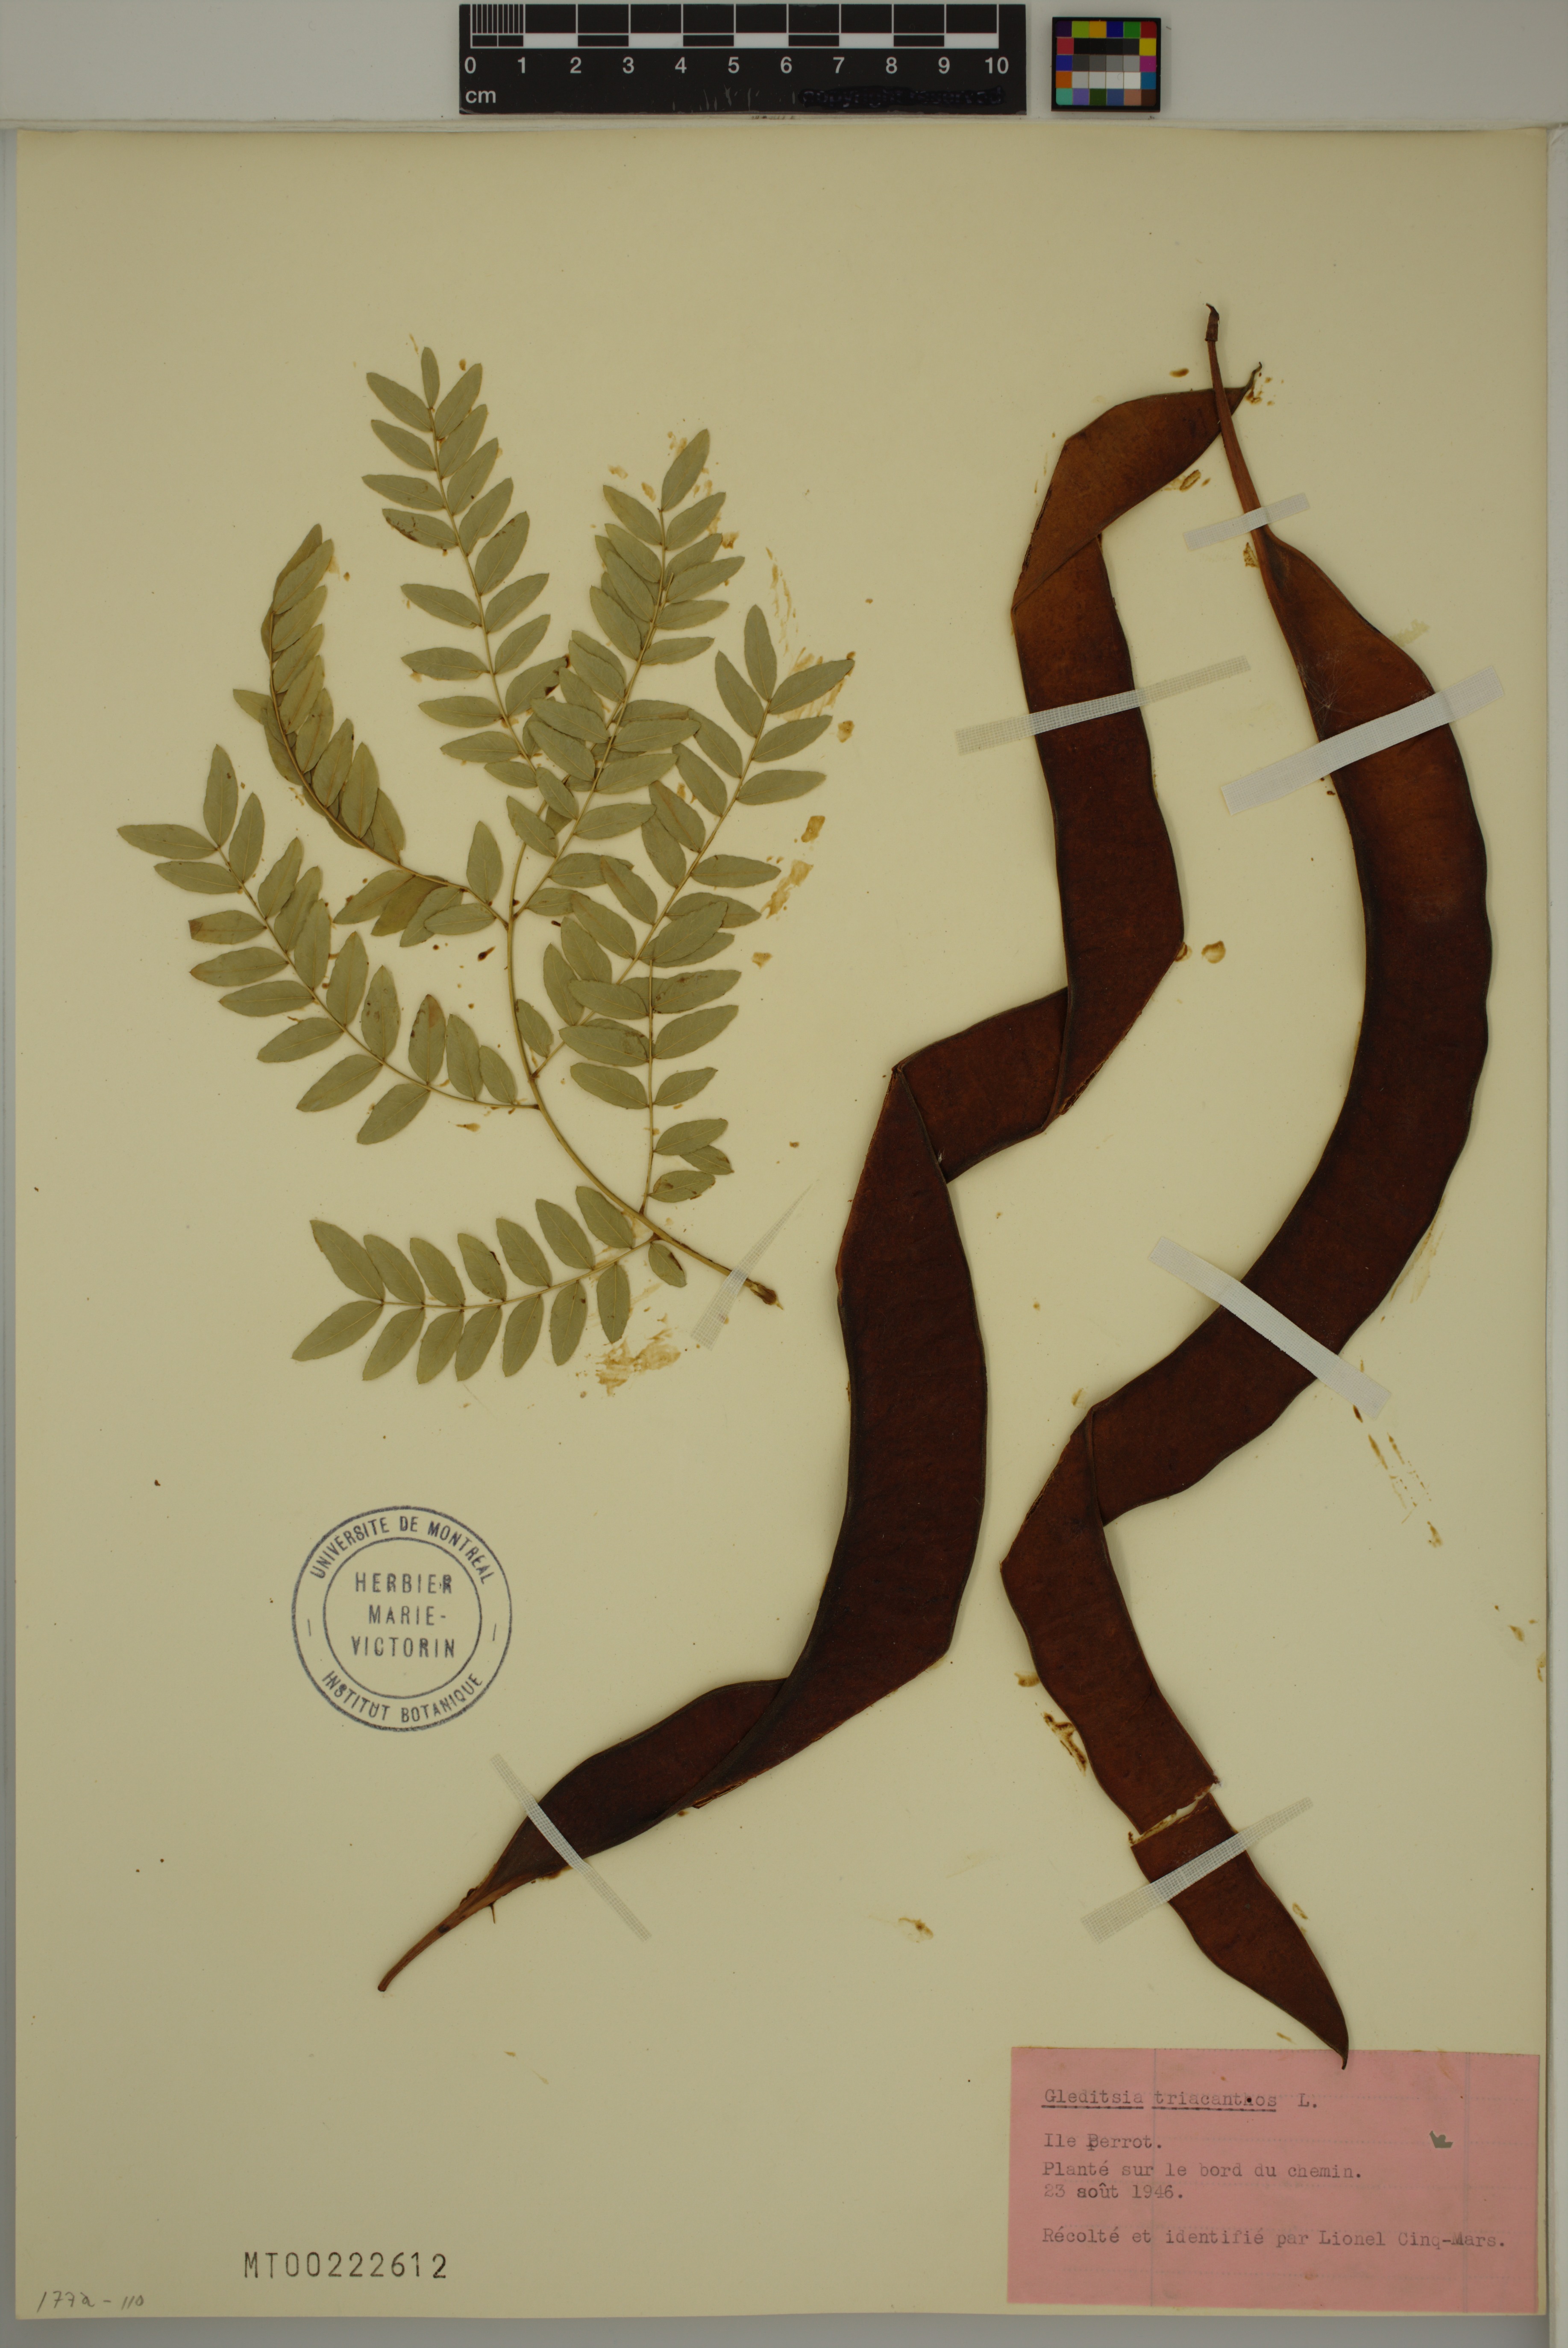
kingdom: Plantae
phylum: Tracheophyta
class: Magnoliopsida
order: Fabales
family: Fabaceae
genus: Gleditsia
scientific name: Gleditsia triacanthos
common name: Common honeylocust
